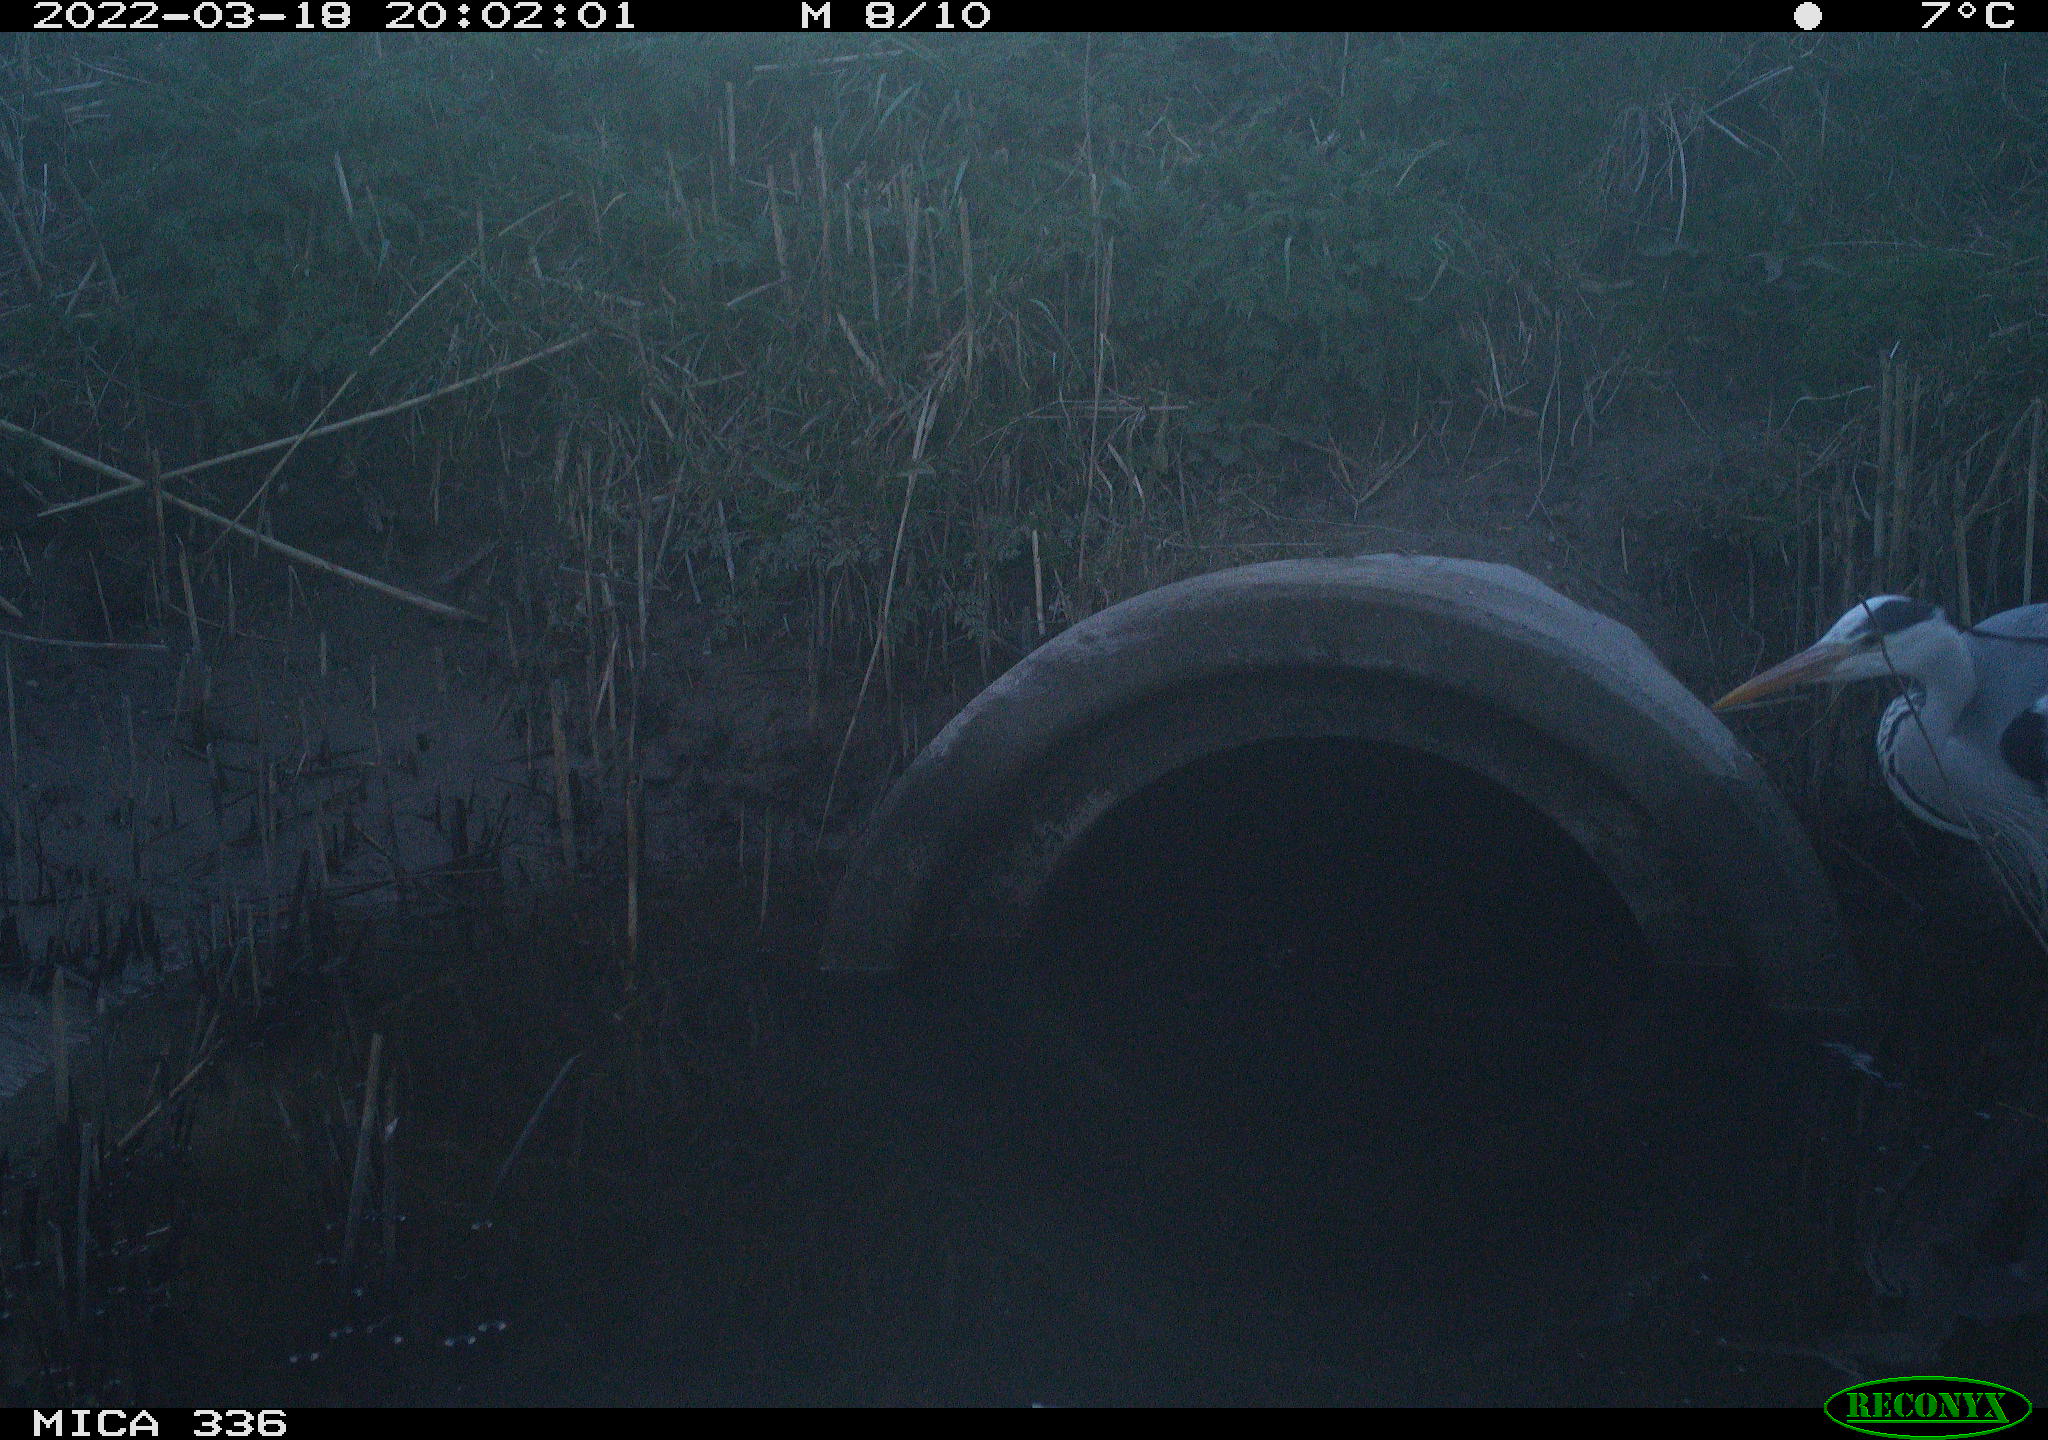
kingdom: Animalia
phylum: Chordata
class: Aves
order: Pelecaniformes
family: Ardeidae
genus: Ardea
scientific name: Ardea cinerea
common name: Grey heron
